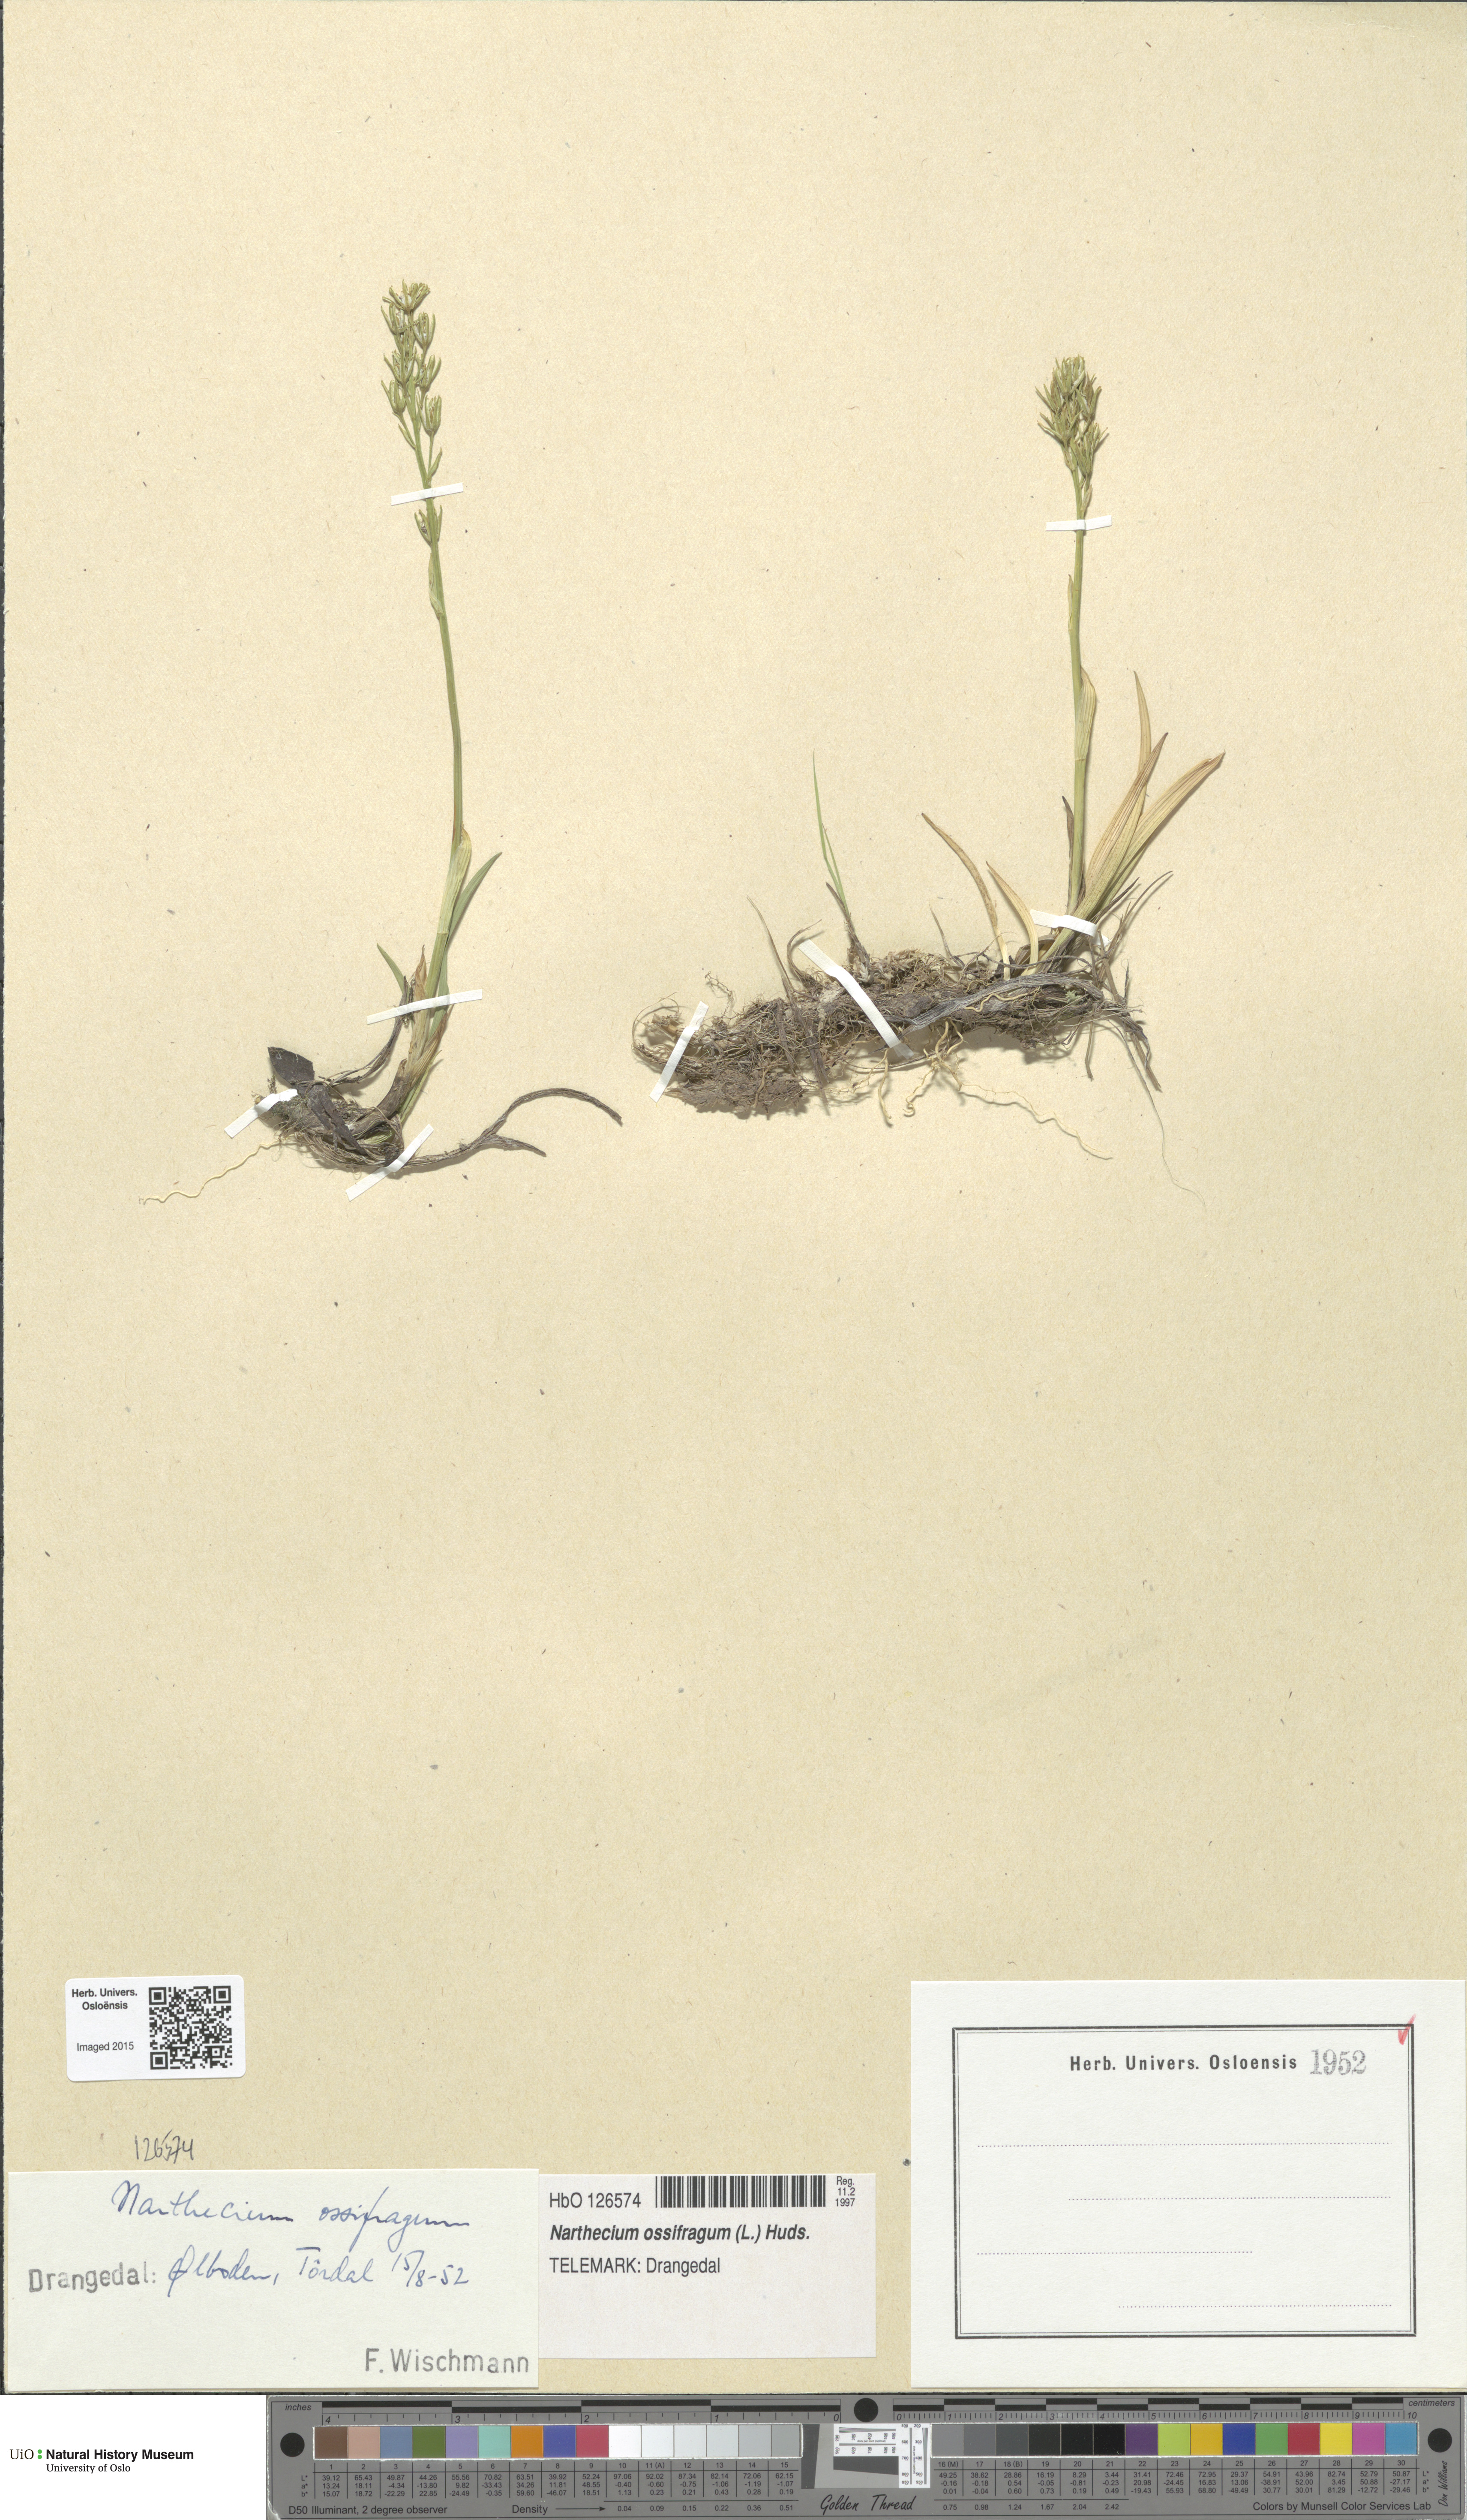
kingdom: Plantae
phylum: Tracheophyta
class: Liliopsida
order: Dioscoreales
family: Nartheciaceae
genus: Narthecium
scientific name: Narthecium ossifragum
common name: Bog asphodel
